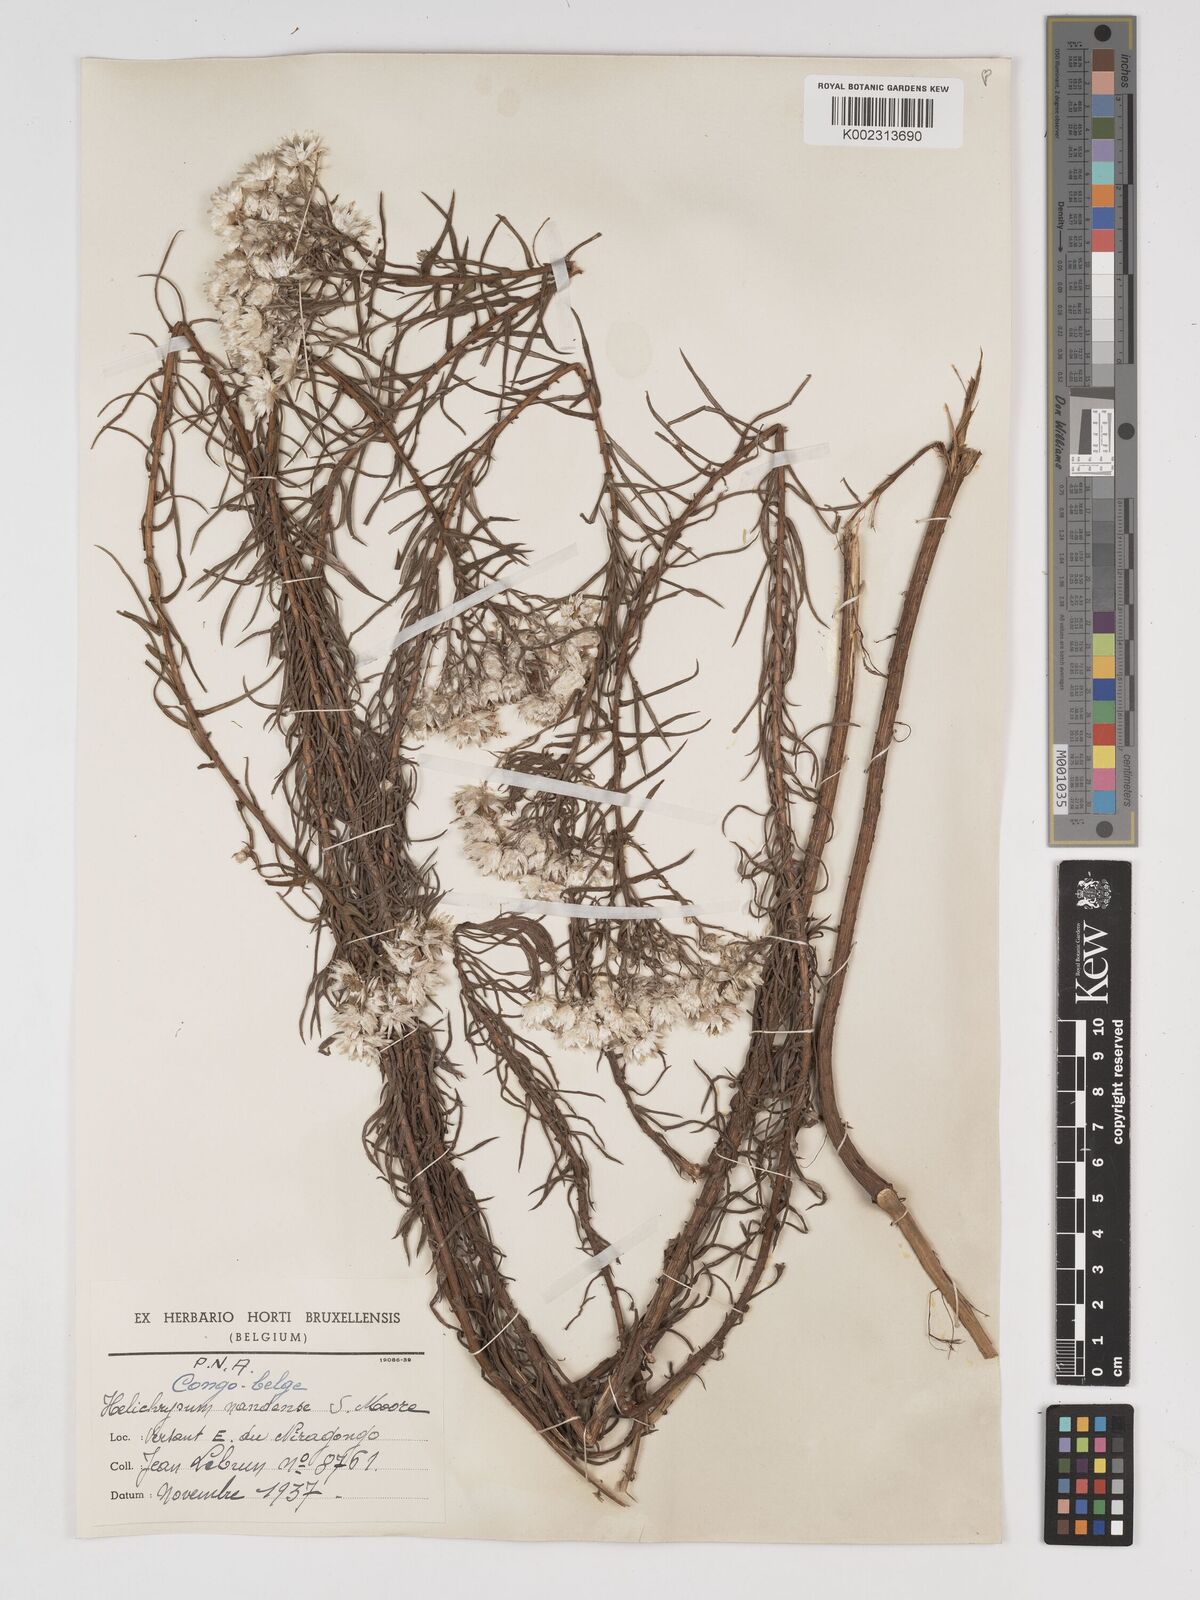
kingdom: Plantae
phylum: Tracheophyta
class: Magnoliopsida
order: Asterales
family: Asteraceae
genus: Helichrysum
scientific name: Helichrysum argyranthum
